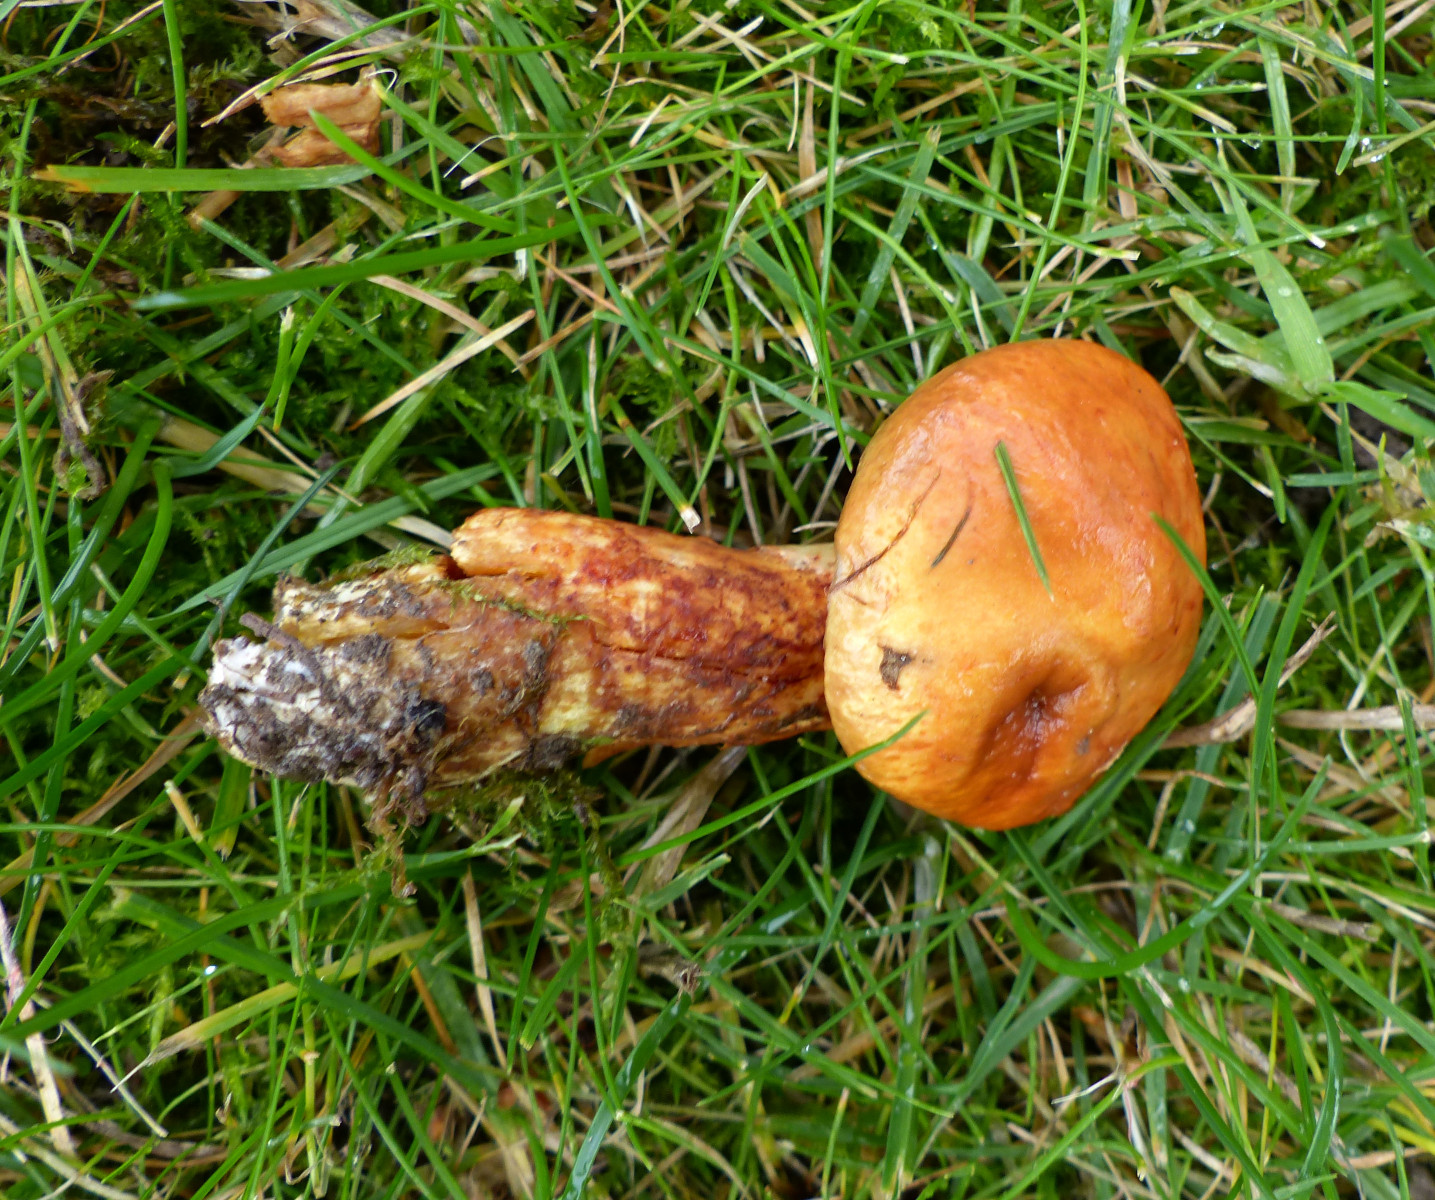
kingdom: Fungi
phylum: Basidiomycota
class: Agaricomycetes
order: Boletales
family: Suillaceae
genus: Suillus
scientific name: Suillus
